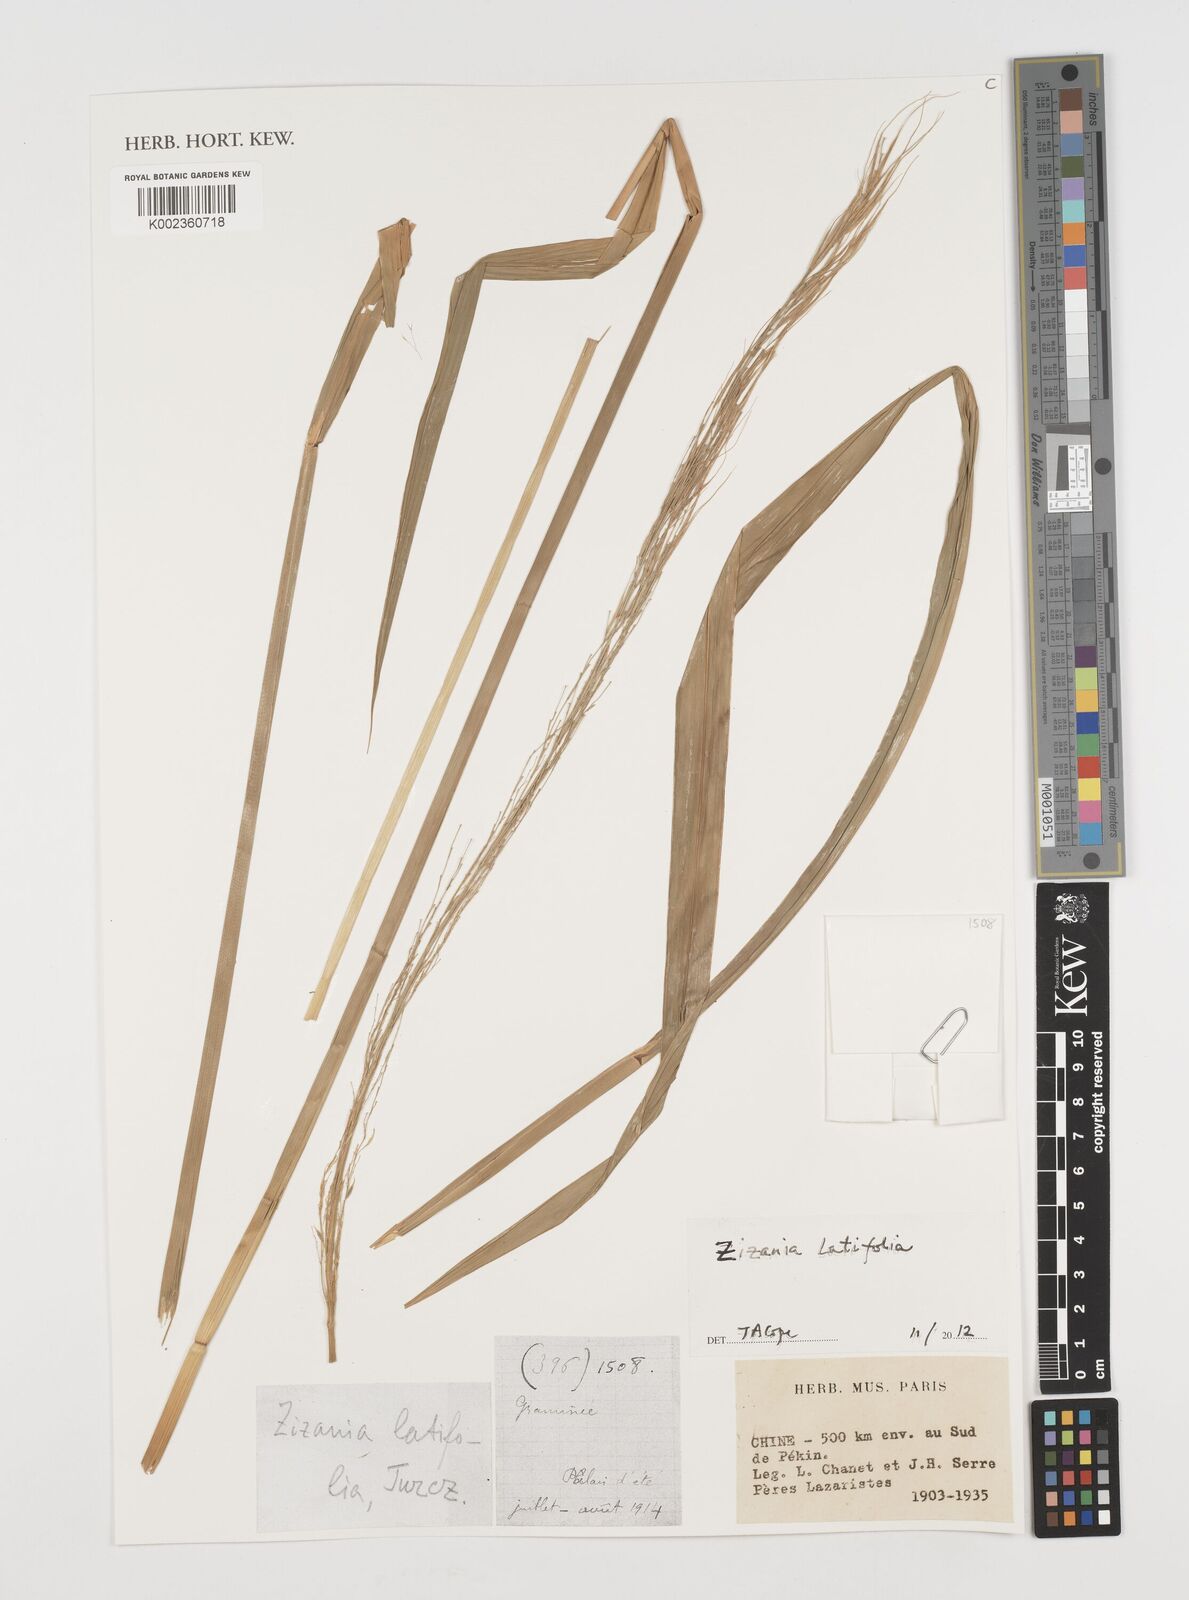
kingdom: Plantae
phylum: Tracheophyta
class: Liliopsida
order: Poales
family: Poaceae
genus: Zizania
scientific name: Zizania latifolia
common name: Manchurian wildrice
